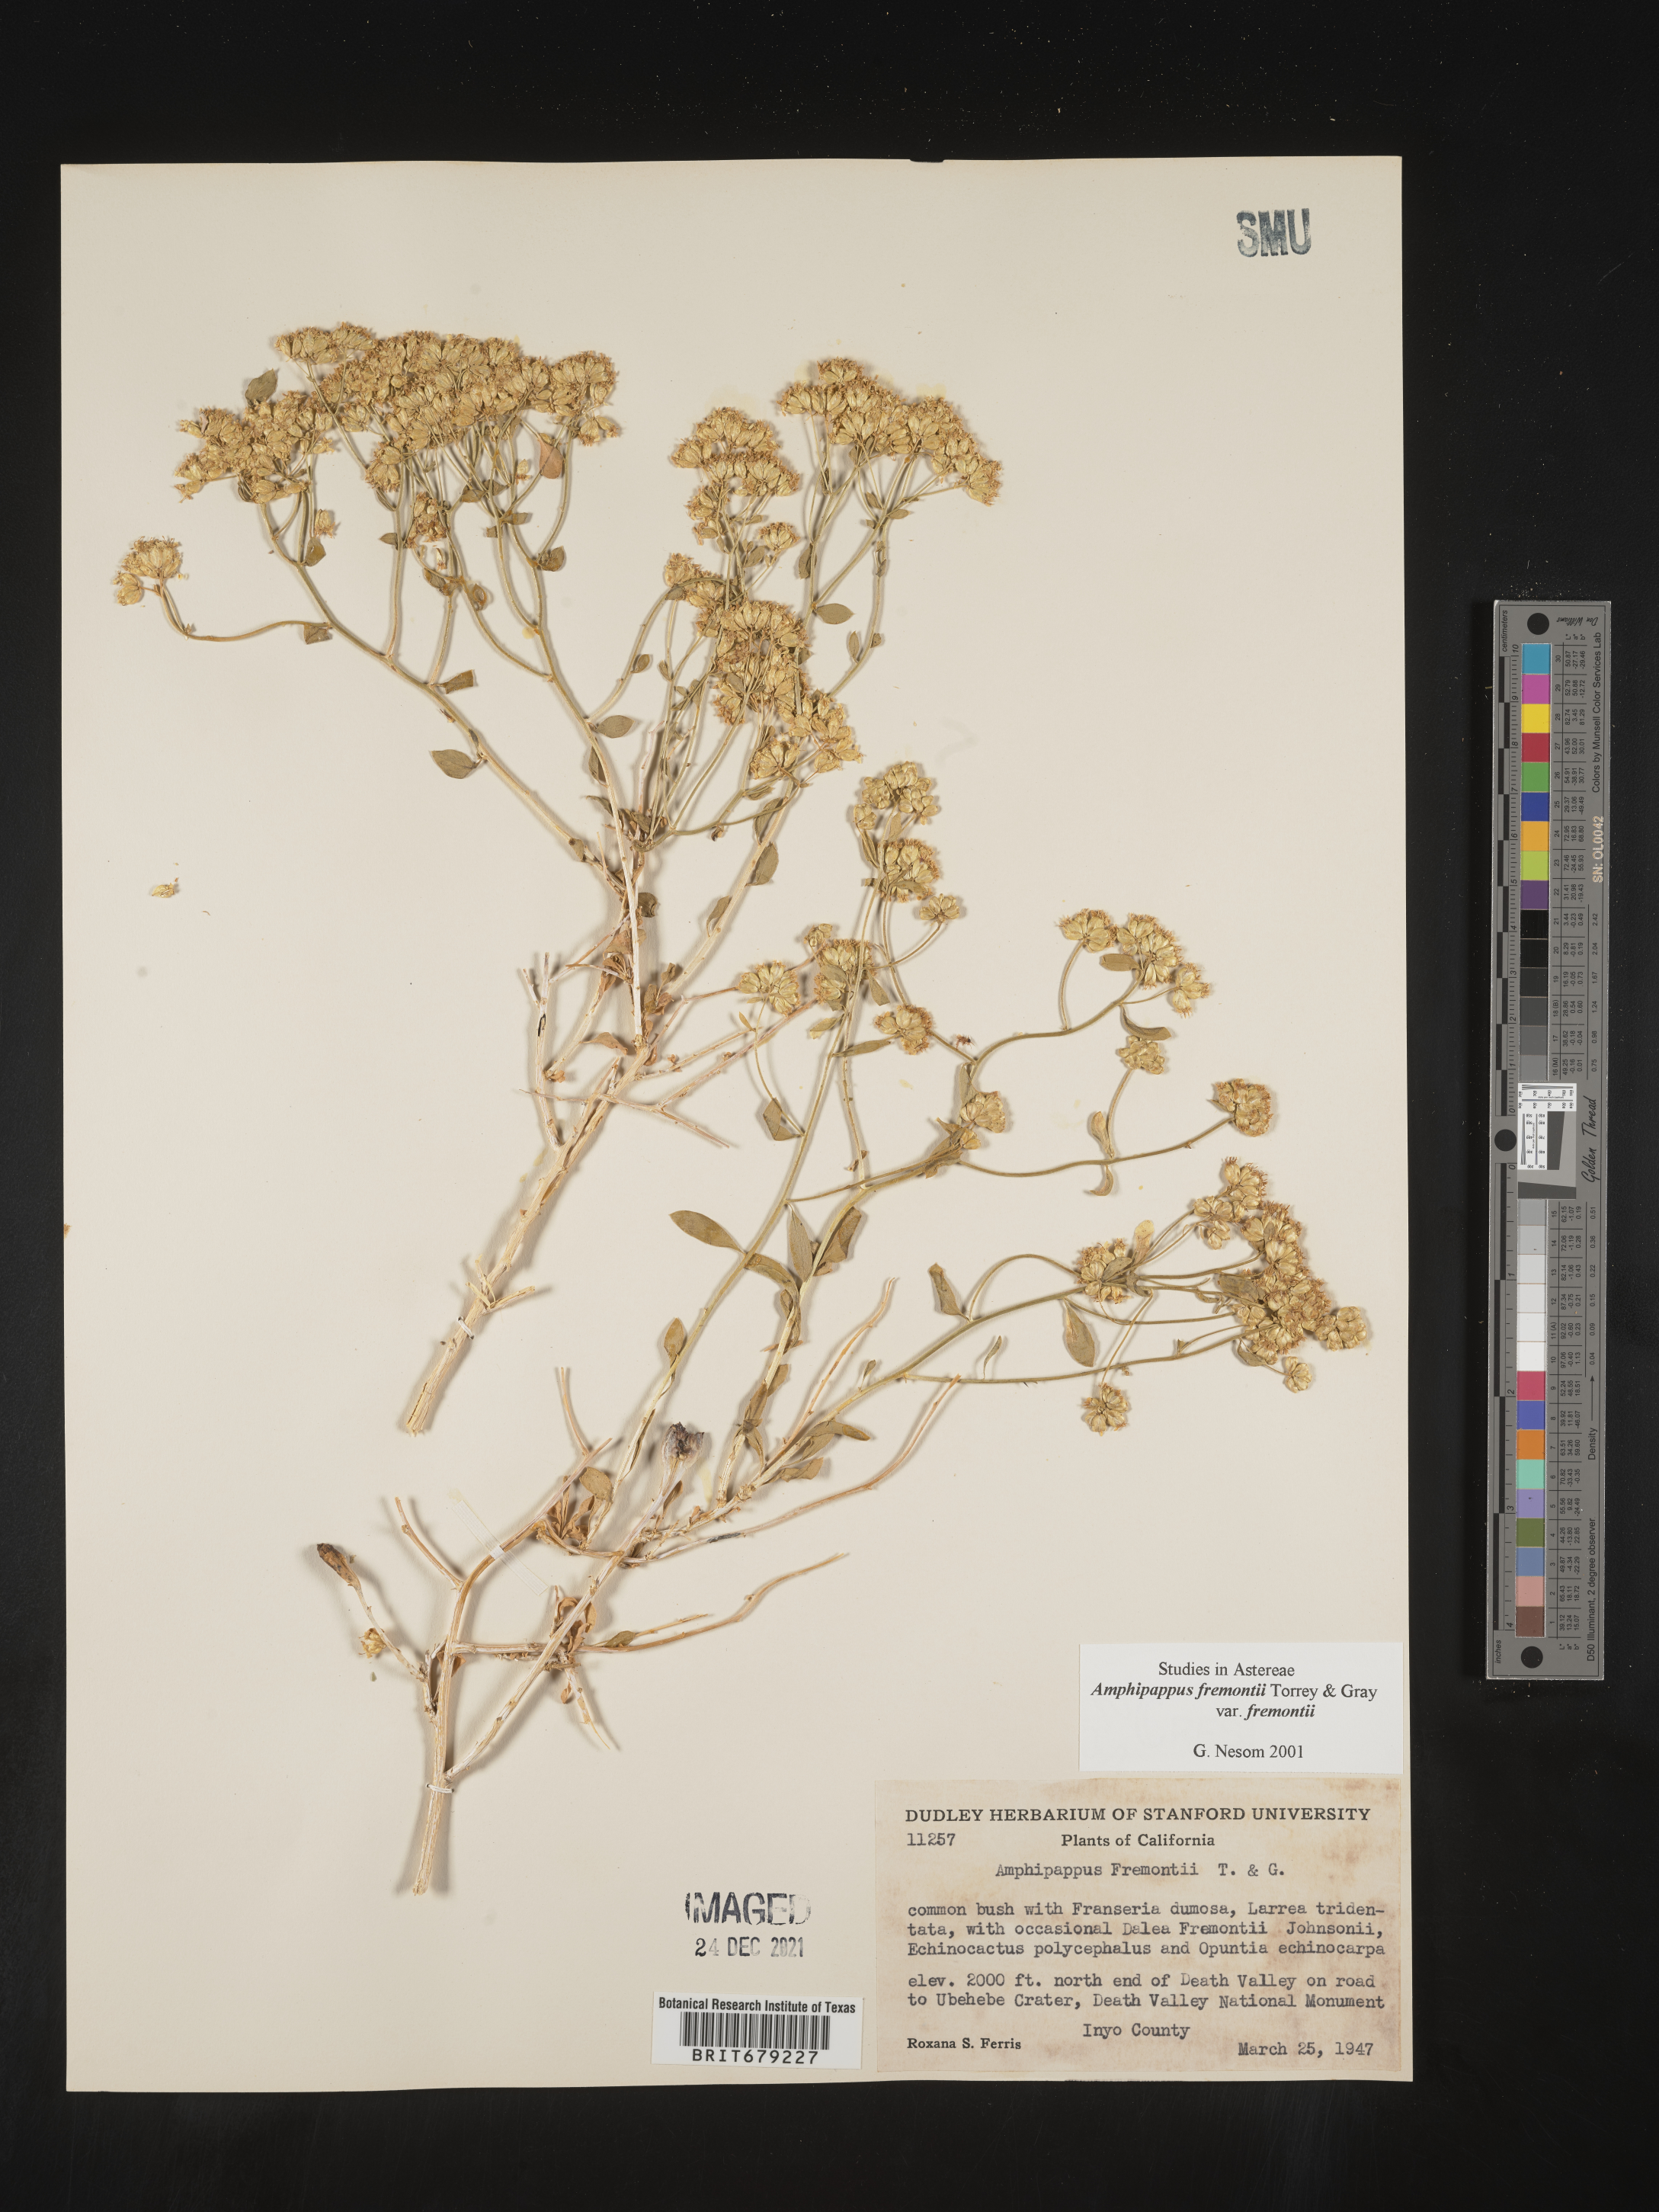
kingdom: Plantae
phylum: Tracheophyta
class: Magnoliopsida
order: Asterales
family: Asteraceae
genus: Amphipappus
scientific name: Amphipappus
